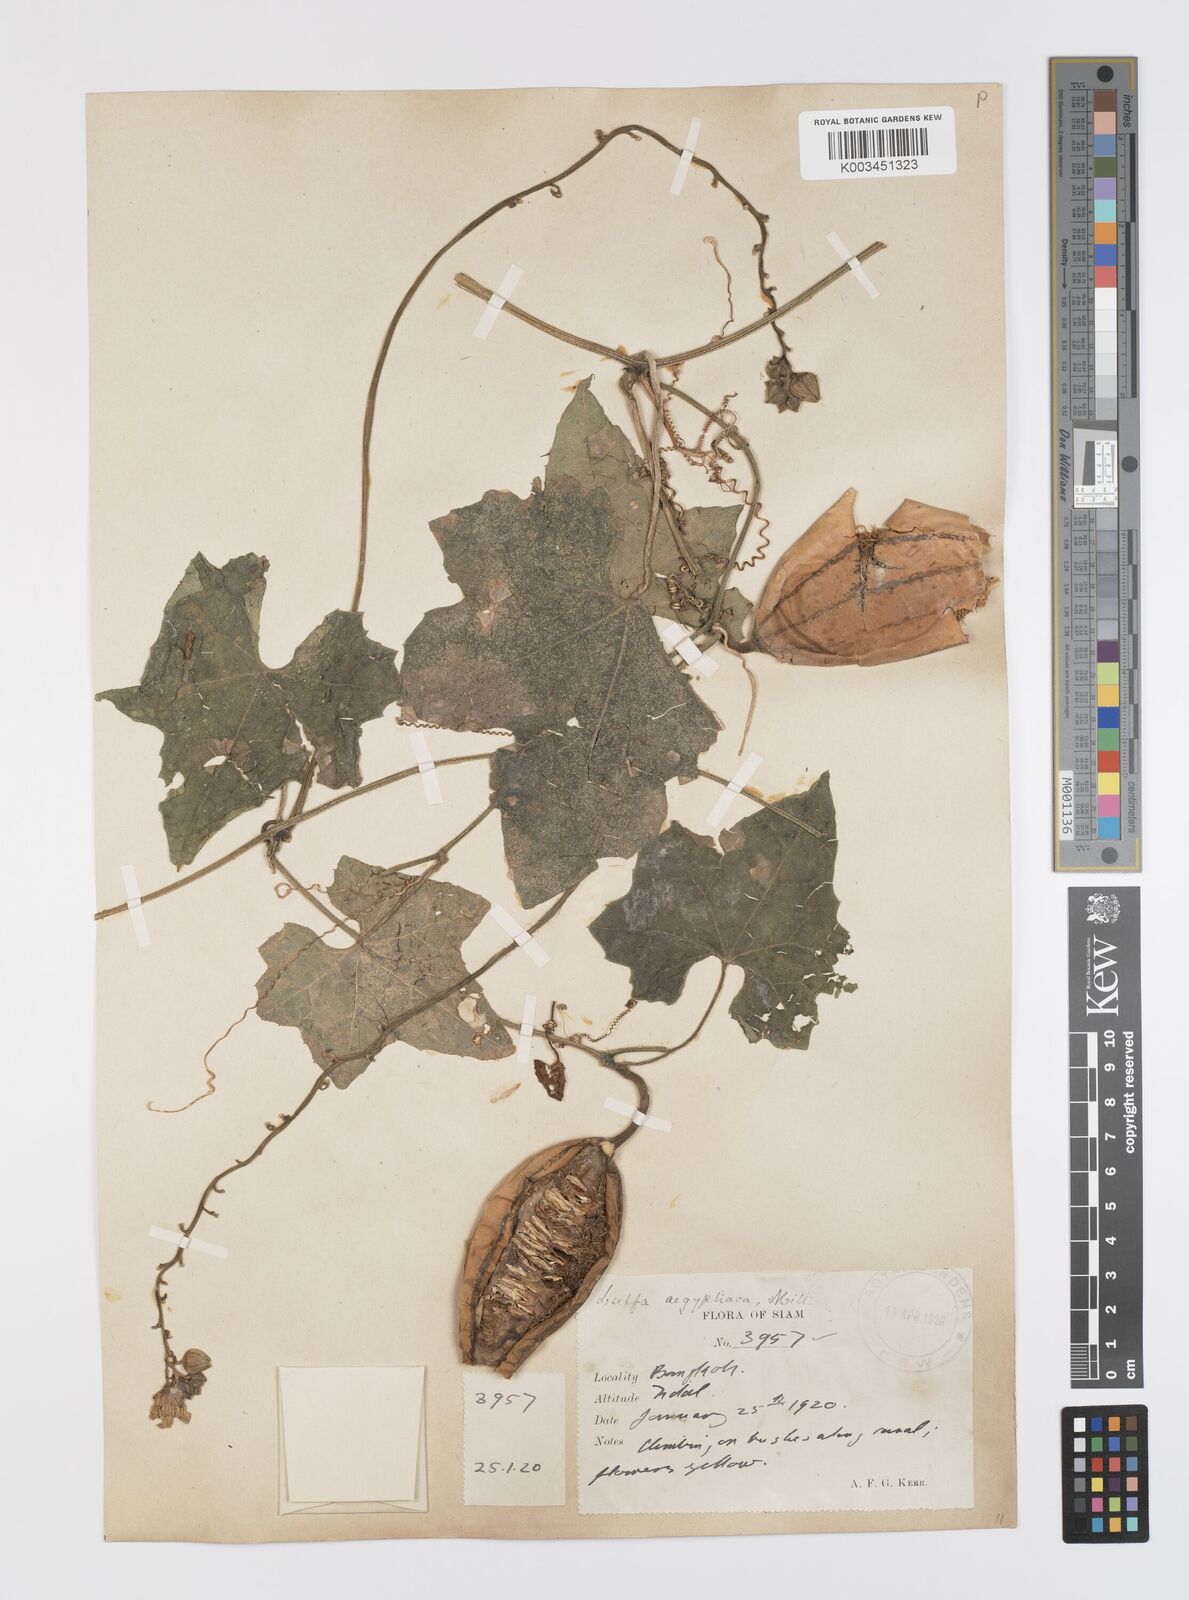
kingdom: Plantae
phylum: Tracheophyta
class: Magnoliopsida
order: Cucurbitales
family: Cucurbitaceae
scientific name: Cucurbitaceae
